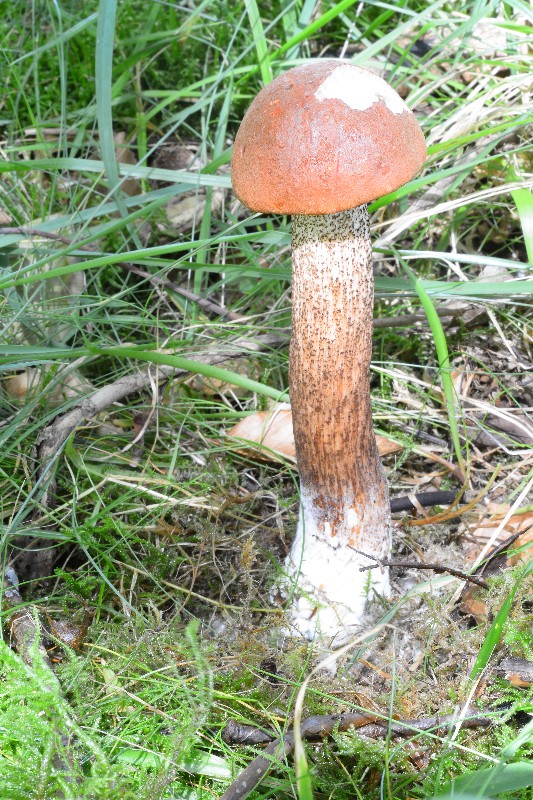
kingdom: Fungi
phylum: Basidiomycota
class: Agaricomycetes
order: Boletales
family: Boletaceae
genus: Leccinum
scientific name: Leccinum aurantiacum
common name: rustrød skælrørhat
